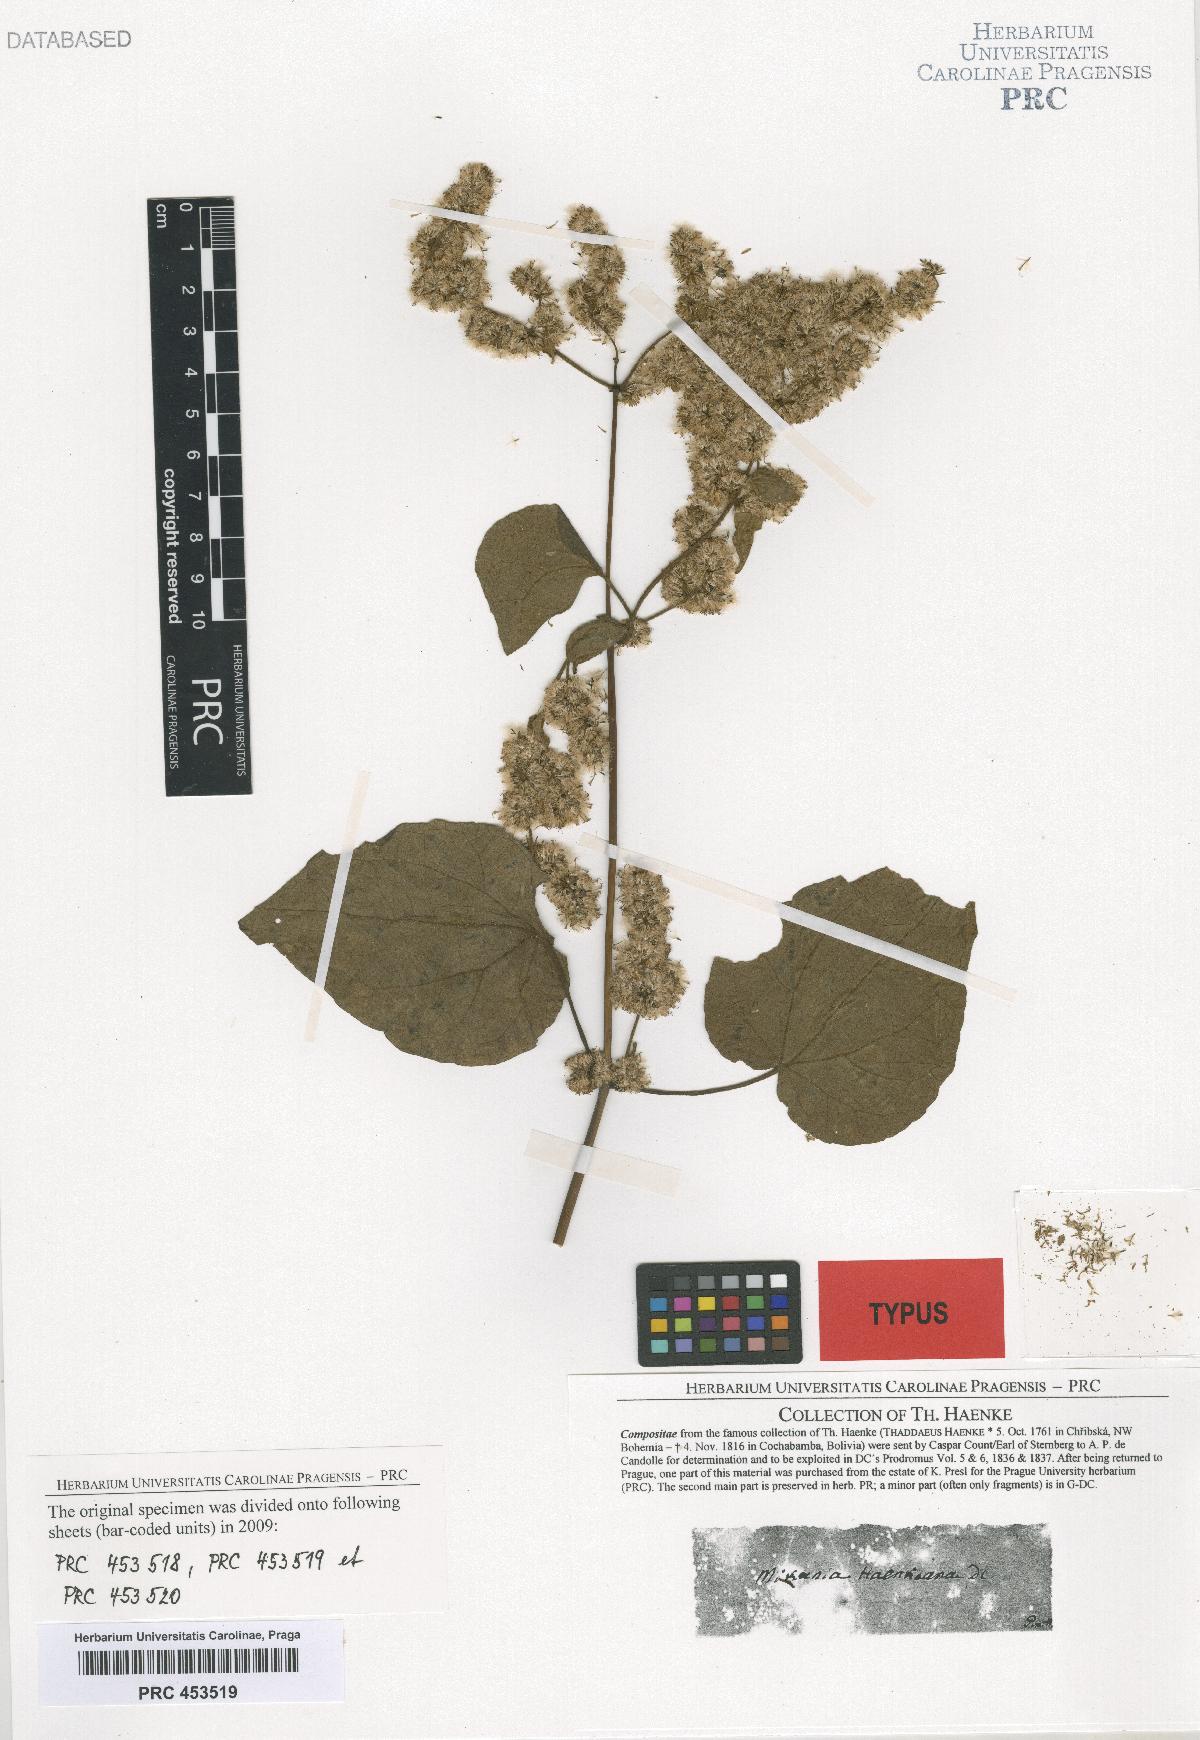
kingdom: Plantae
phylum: Tracheophyta
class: Magnoliopsida
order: Asterales
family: Asteraceae
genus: Mikania
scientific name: Mikania haenkeana
